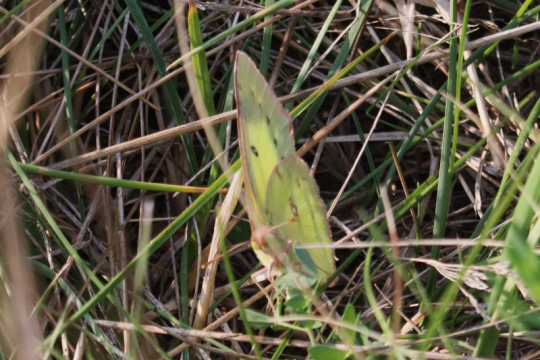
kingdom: Animalia
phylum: Arthropoda
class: Insecta
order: Lepidoptera
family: Pieridae
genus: Colias
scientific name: Colias philodice
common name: Clouded Sulphur
